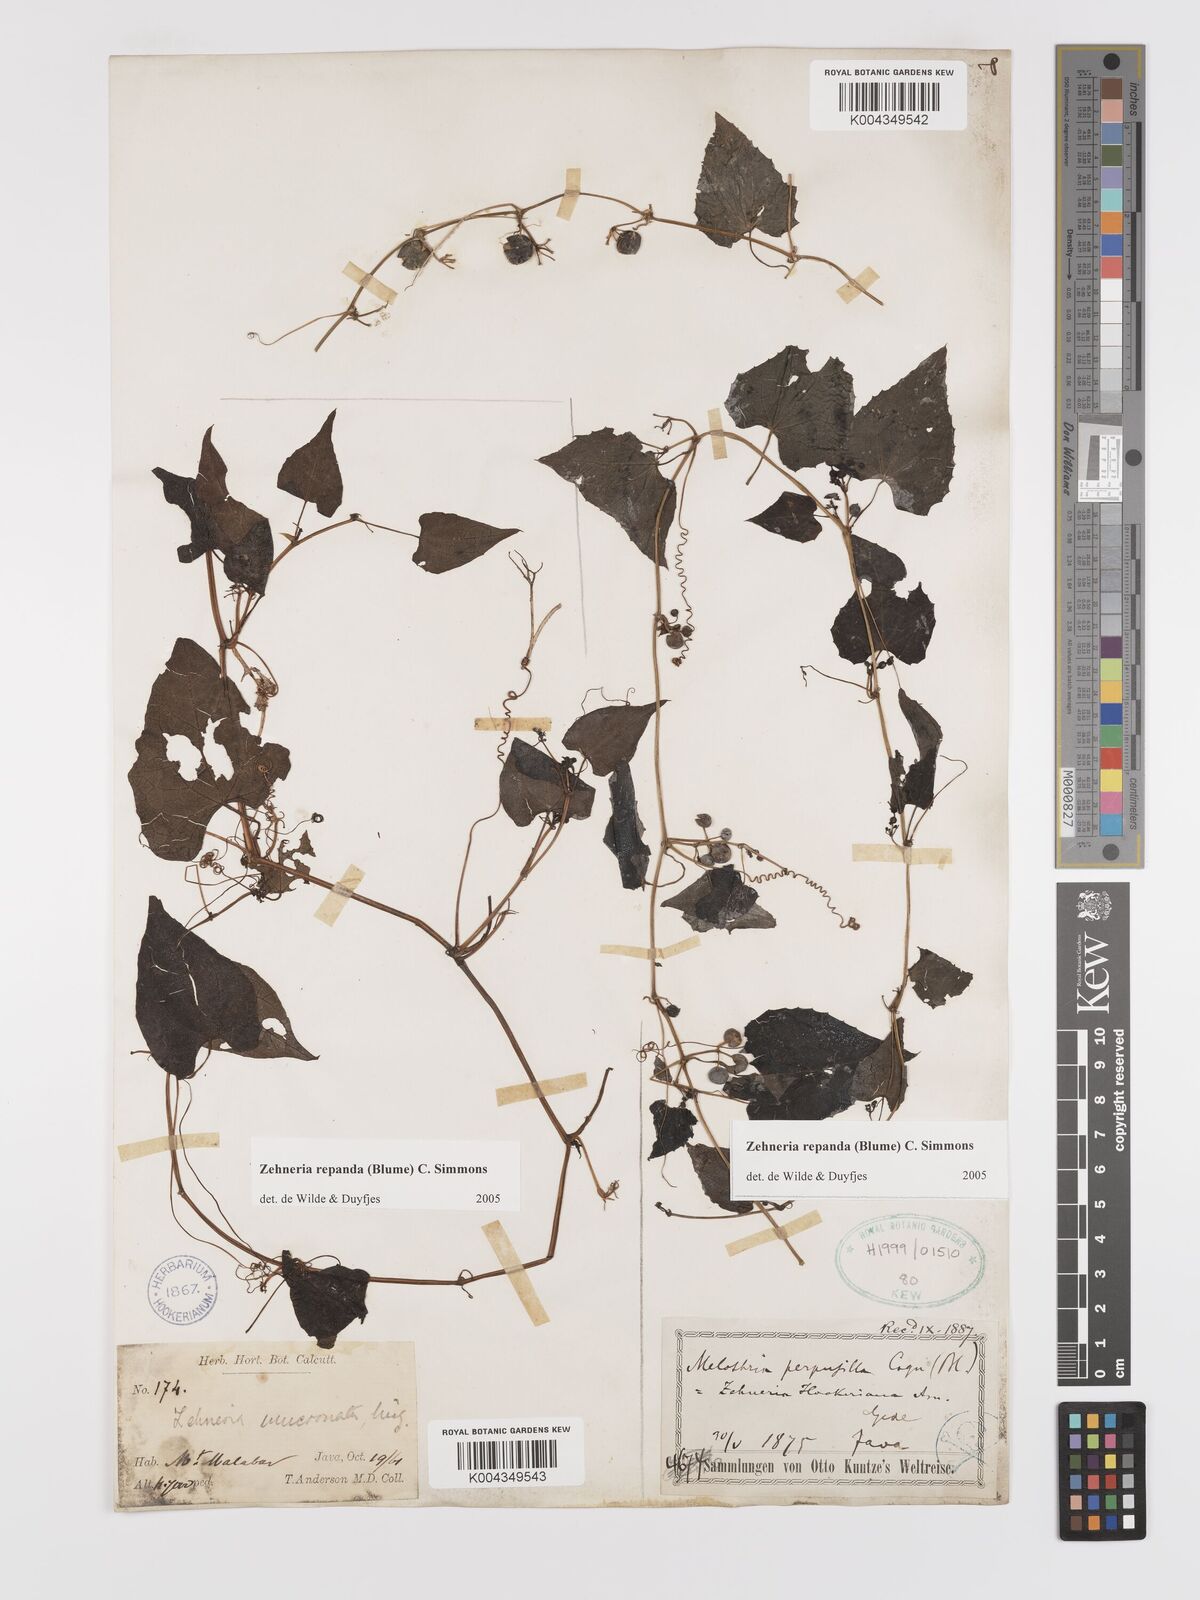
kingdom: Plantae
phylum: Tracheophyta
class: Magnoliopsida
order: Cucurbitales
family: Cucurbitaceae
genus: Zehneria
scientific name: Zehneria repanda
